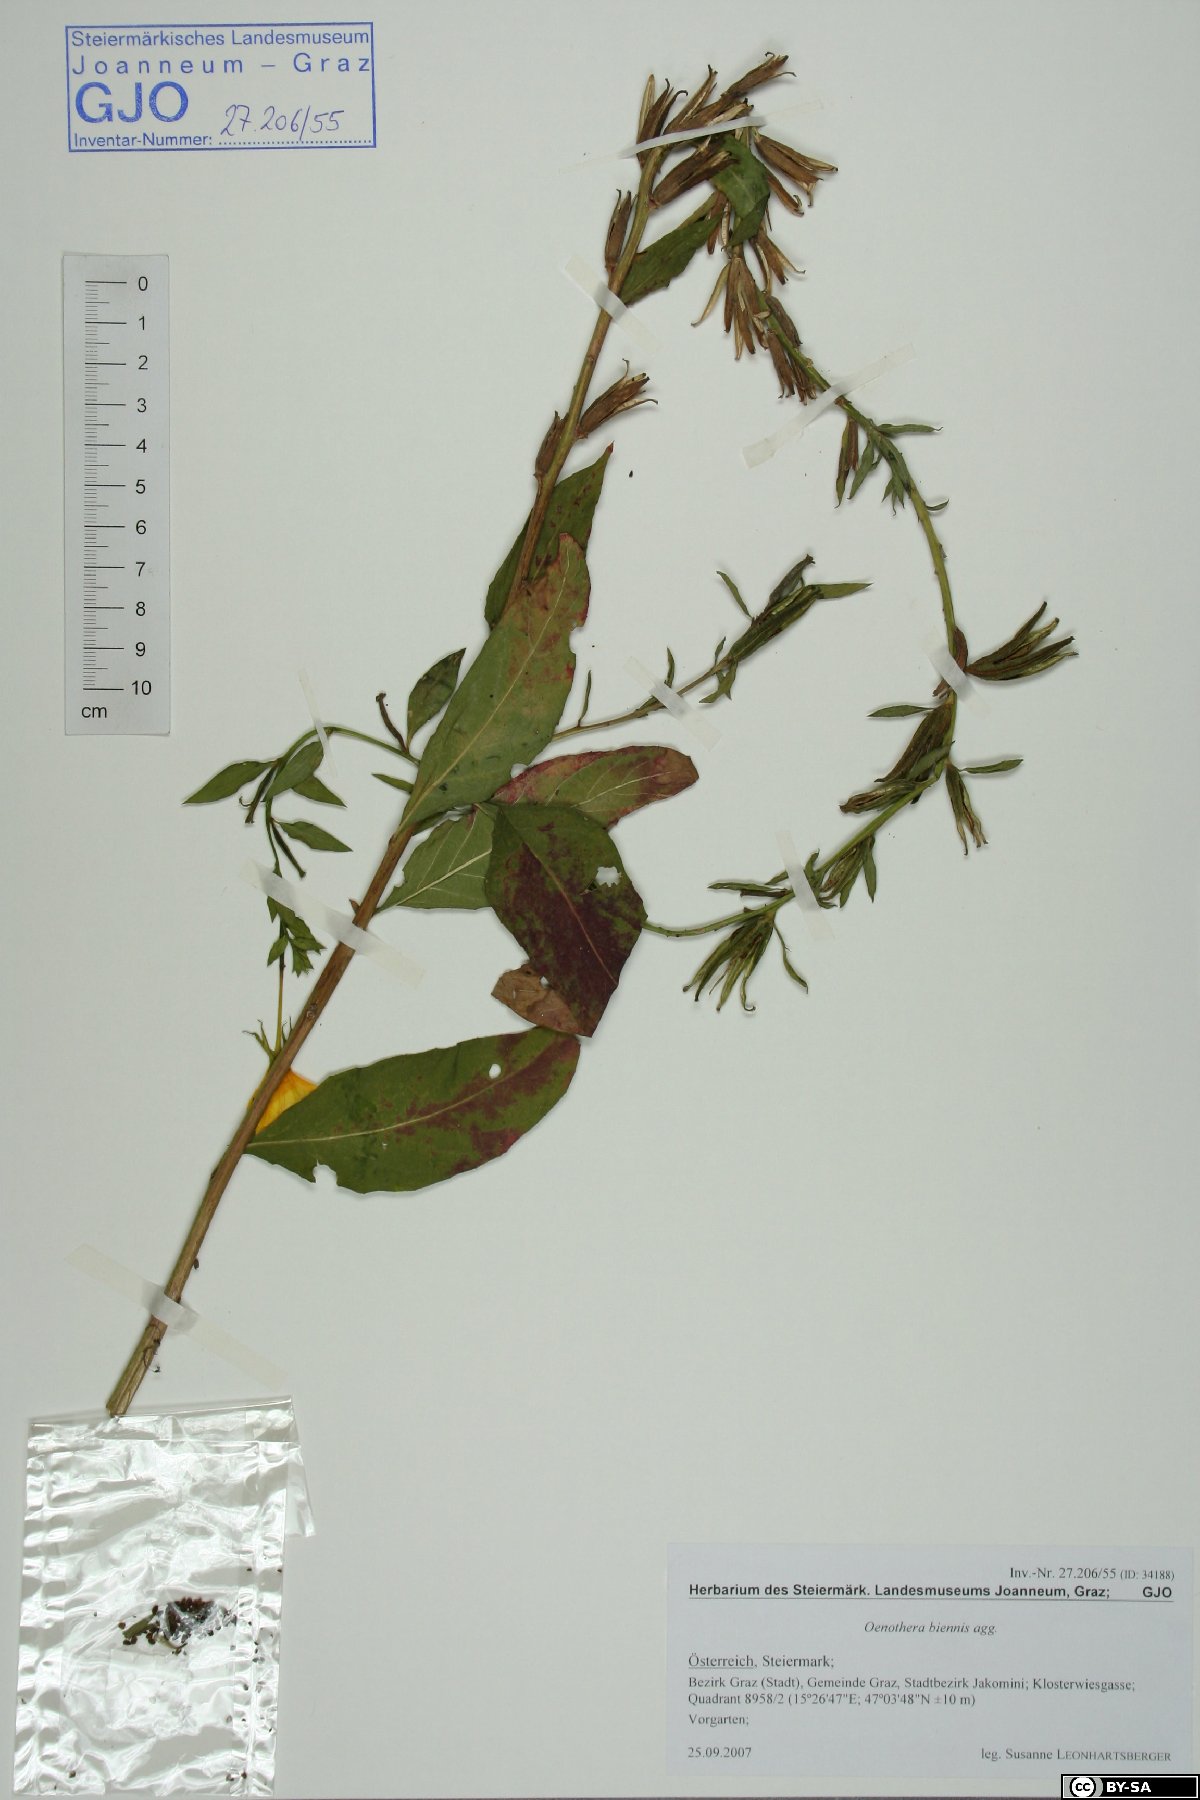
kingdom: Plantae
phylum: Tracheophyta
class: Magnoliopsida
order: Myrtales
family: Onagraceae
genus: Oenothera
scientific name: Oenothera biennis
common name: Common evening-primrose
